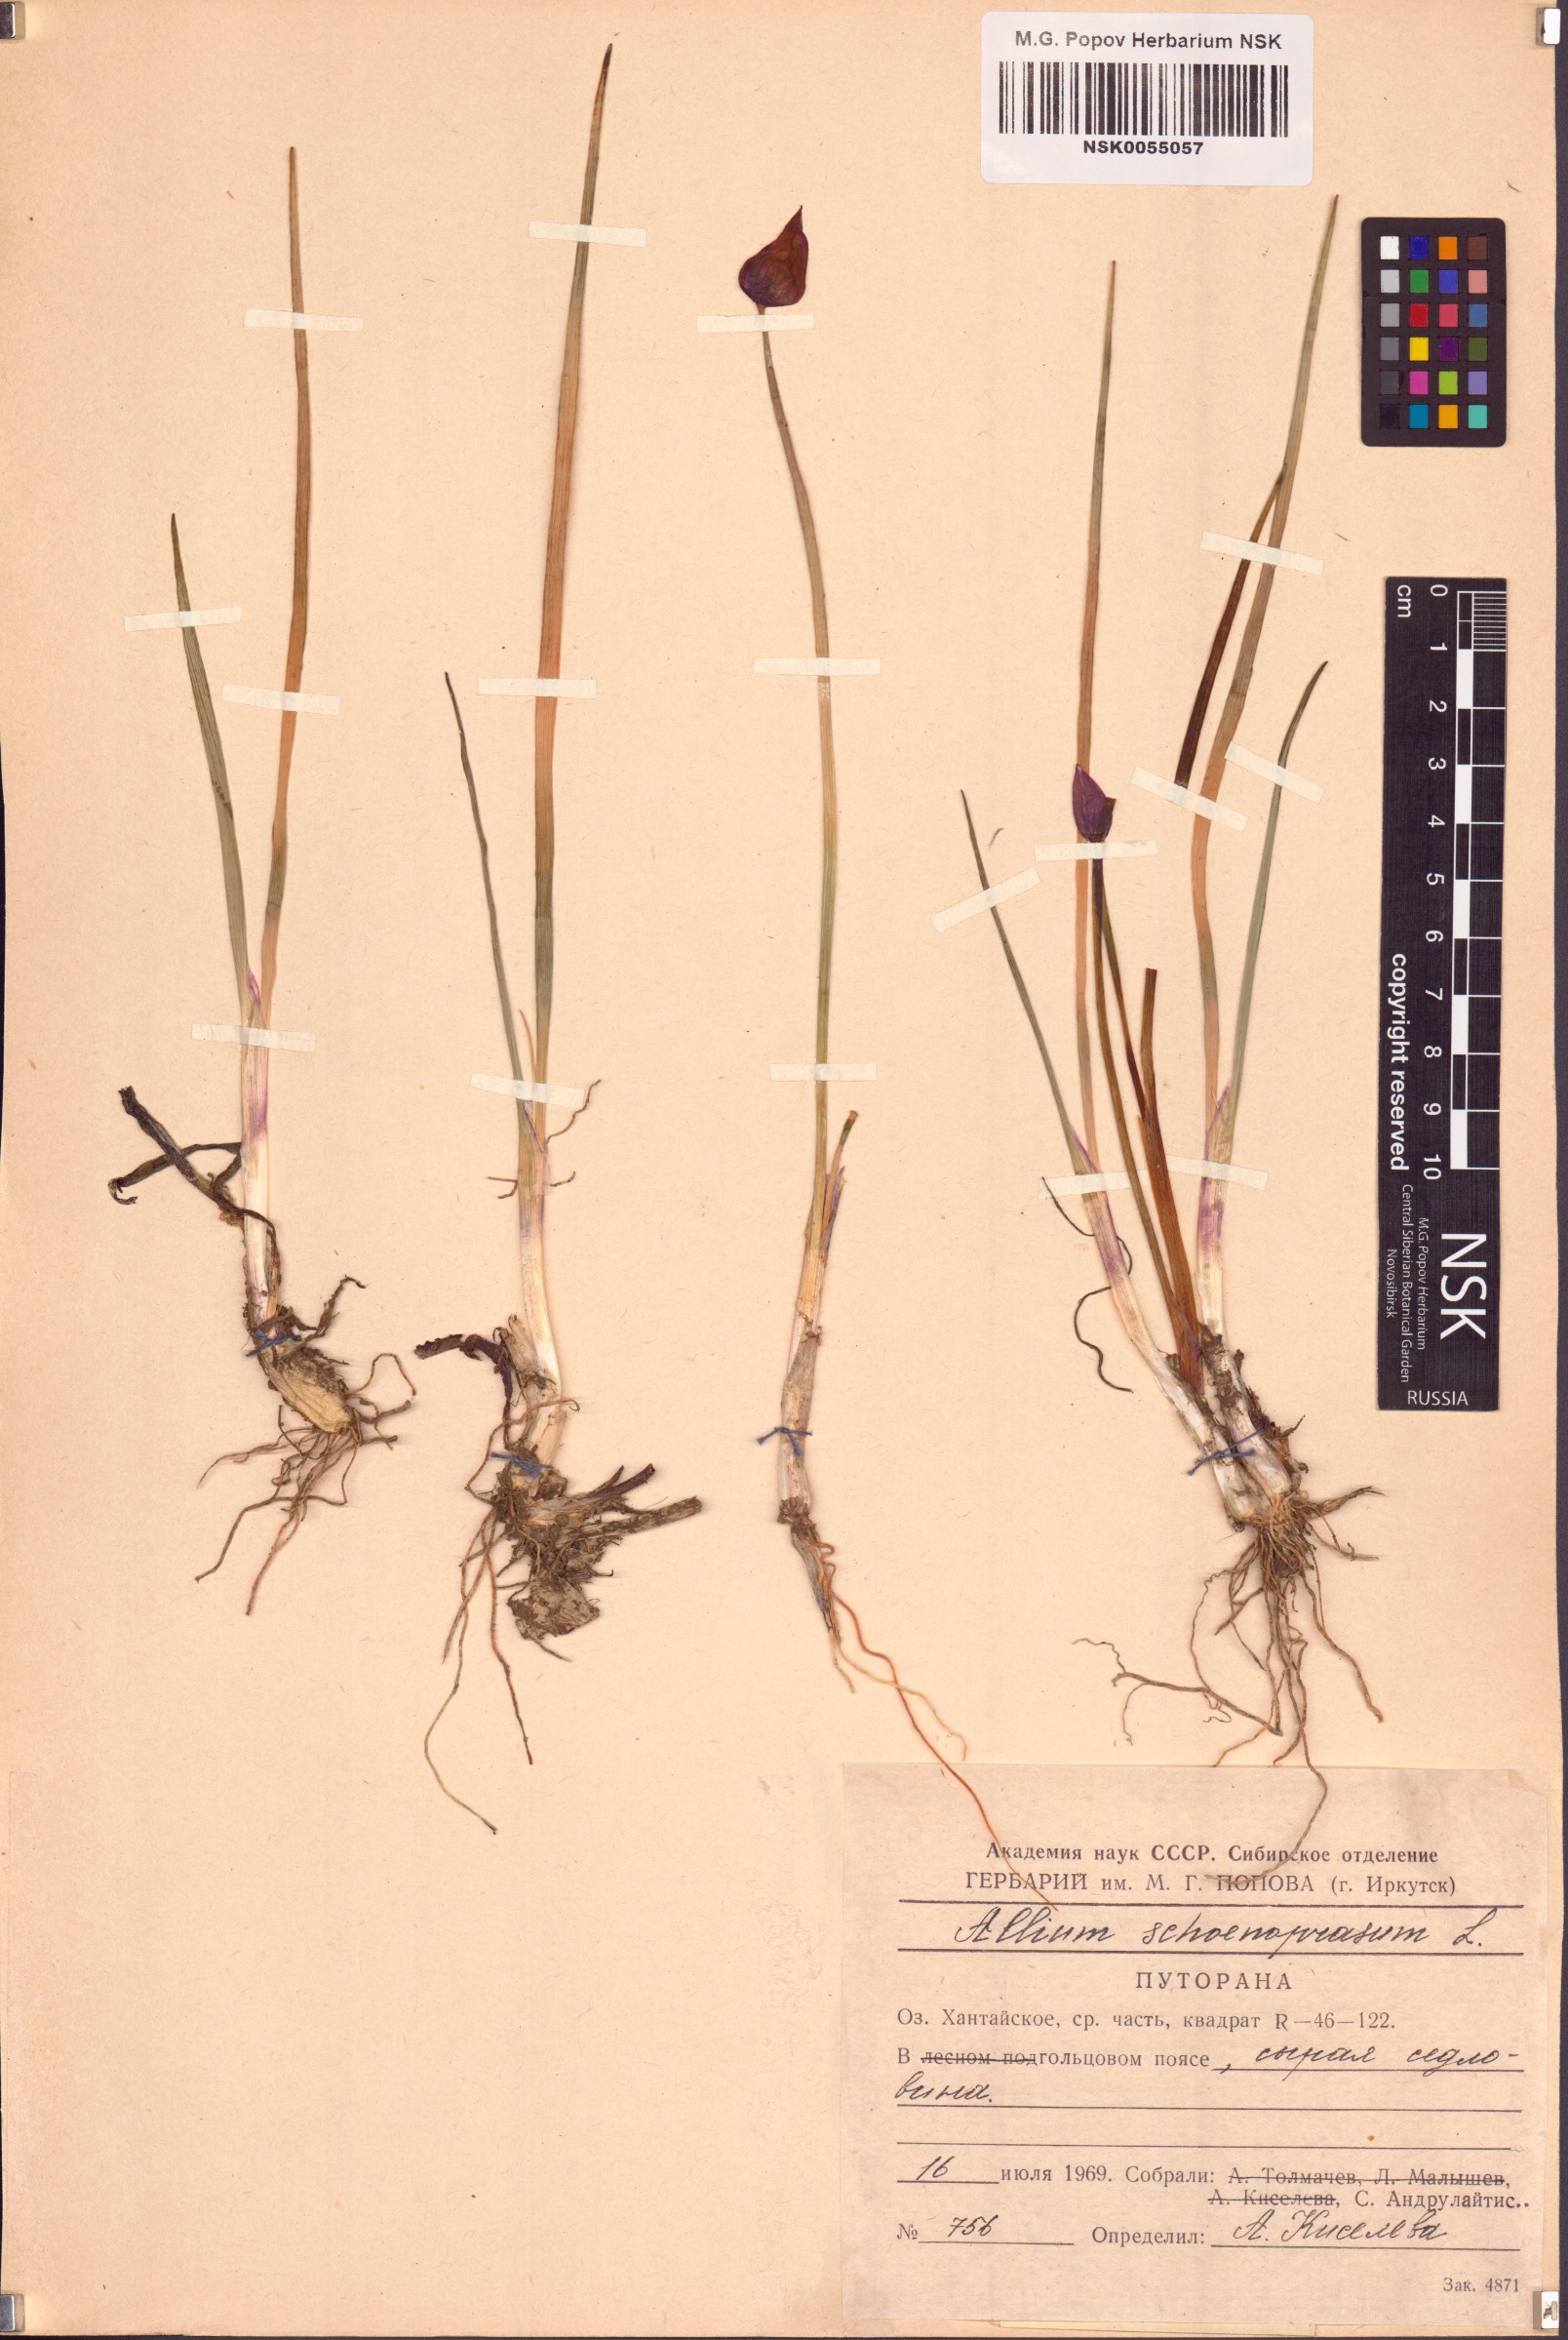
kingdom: Plantae
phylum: Tracheophyta
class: Liliopsida
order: Asparagales
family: Amaryllidaceae
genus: Allium
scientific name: Allium schoenoprasum
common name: Chives
